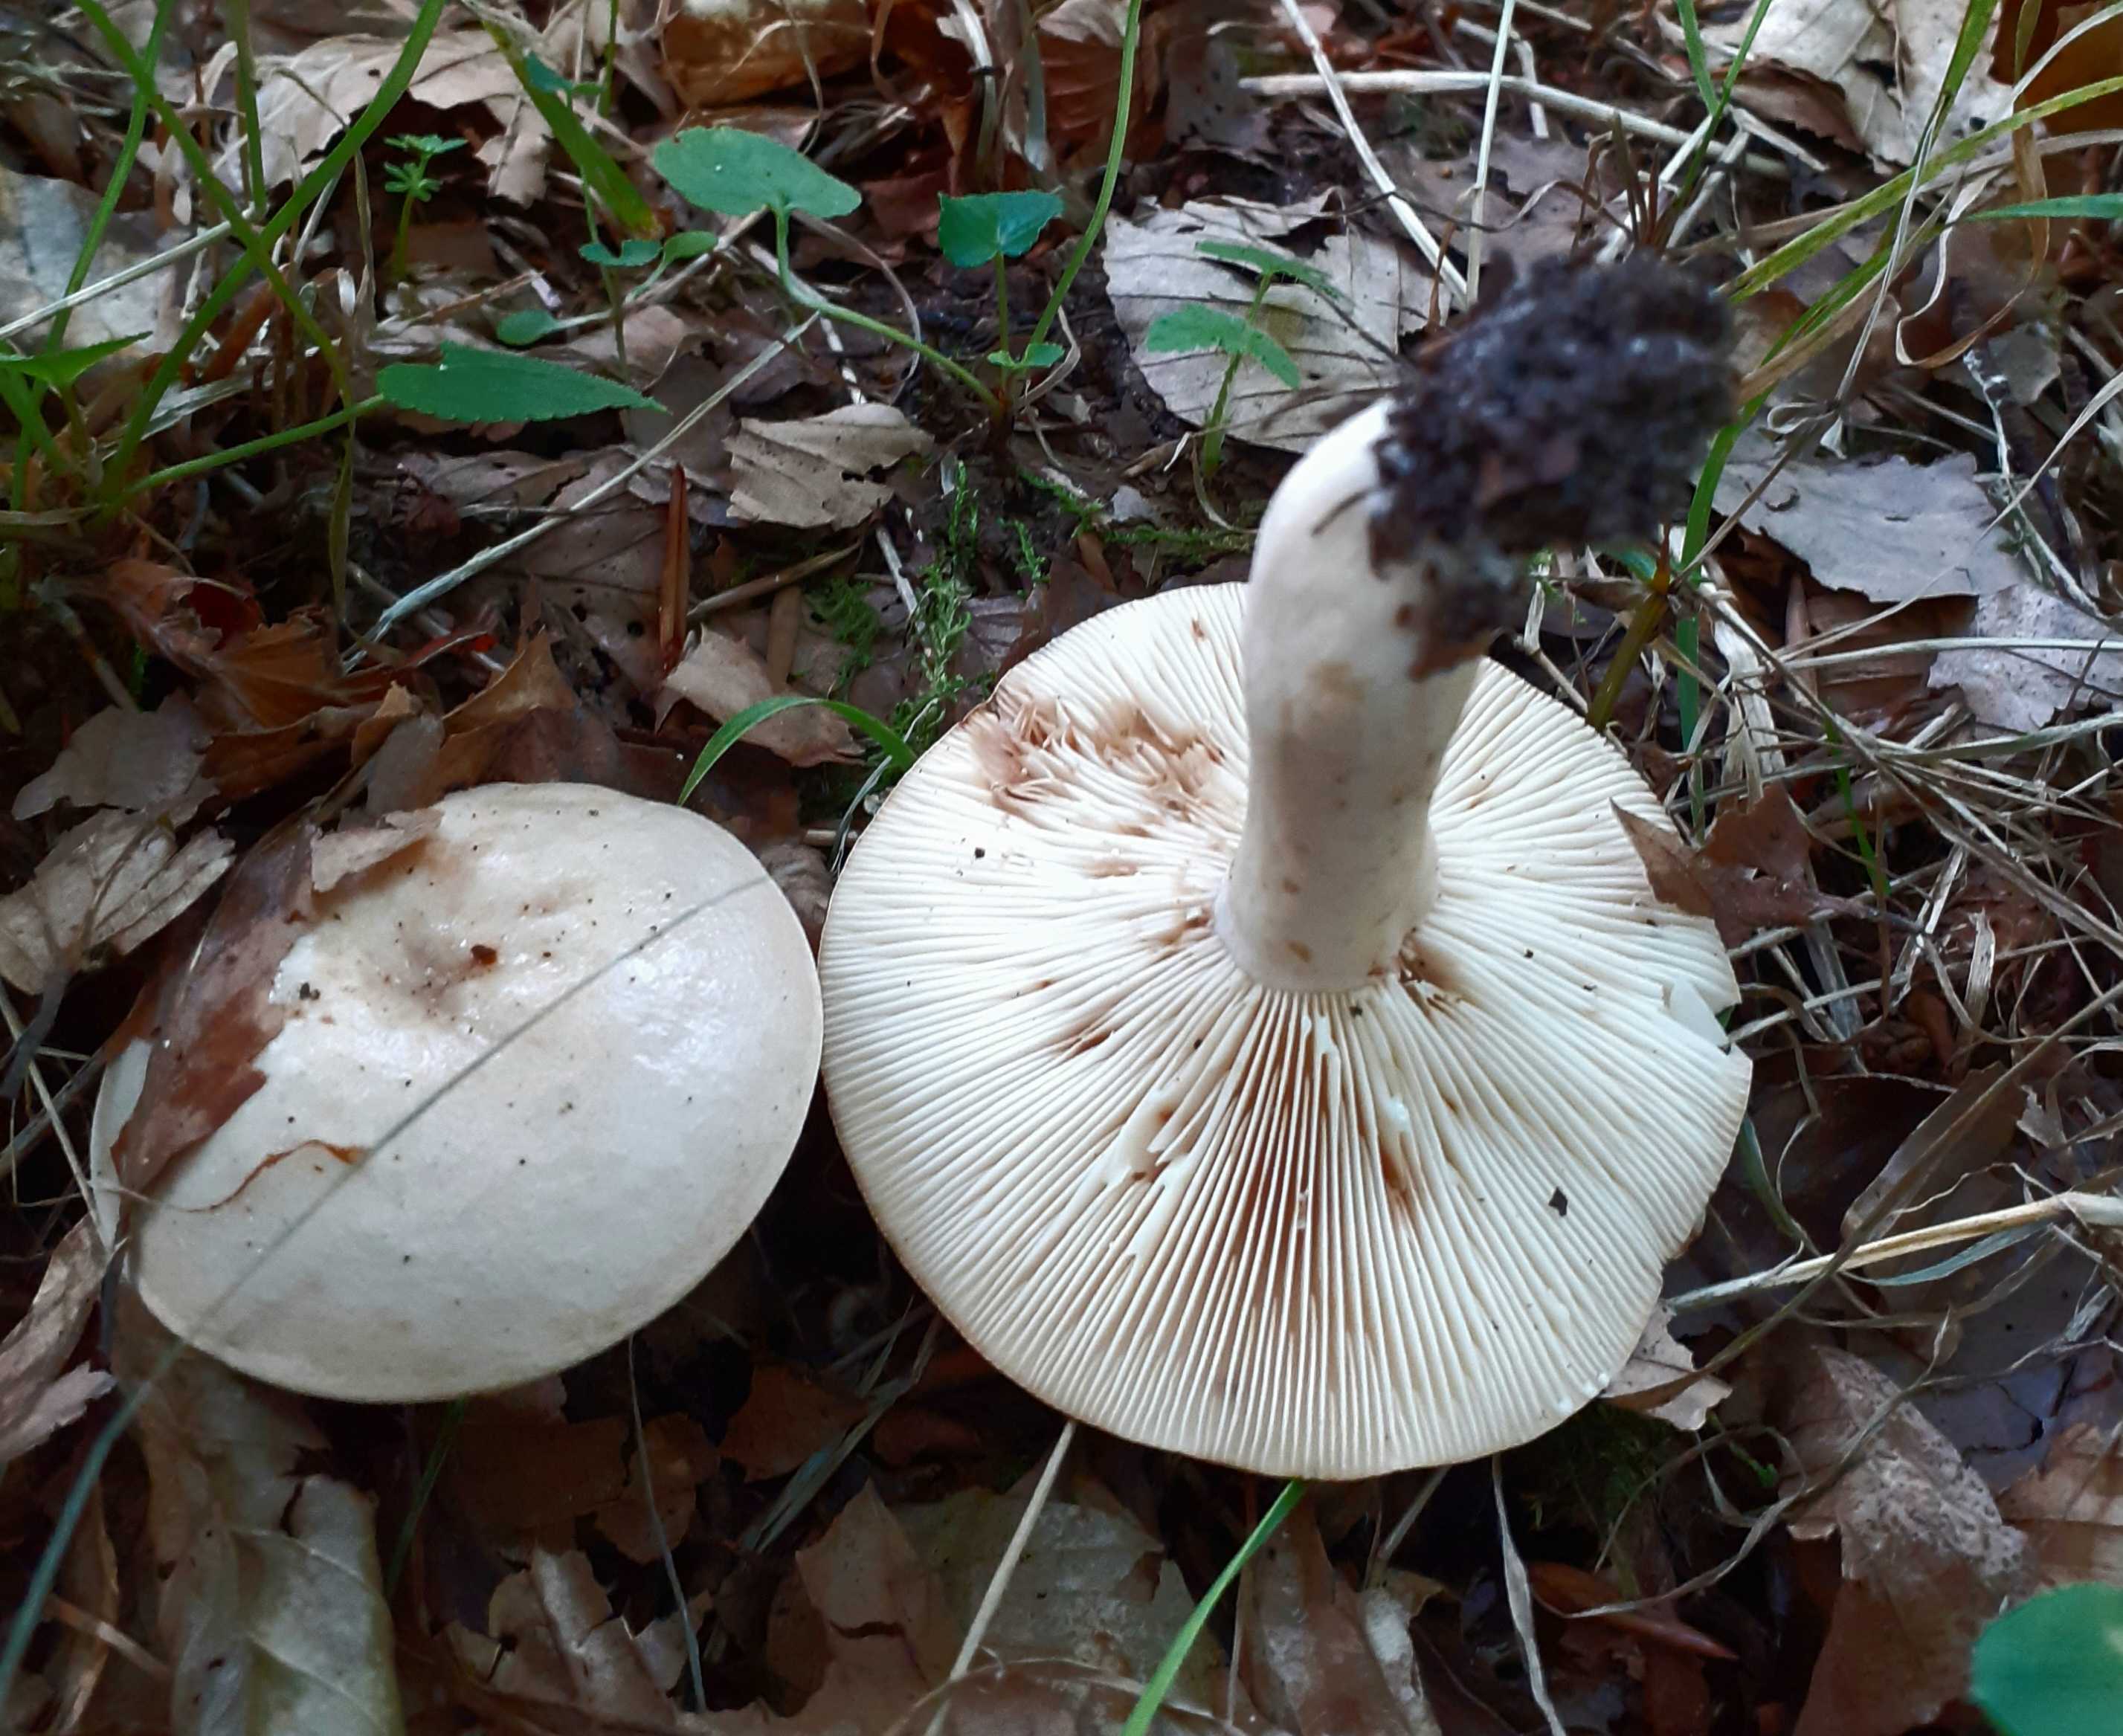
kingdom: Fungi
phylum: Basidiomycota
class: Agaricomycetes
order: Russulales
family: Russulaceae
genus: Lactarius
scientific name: Lactarius pallidus
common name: bleg mælkehat
